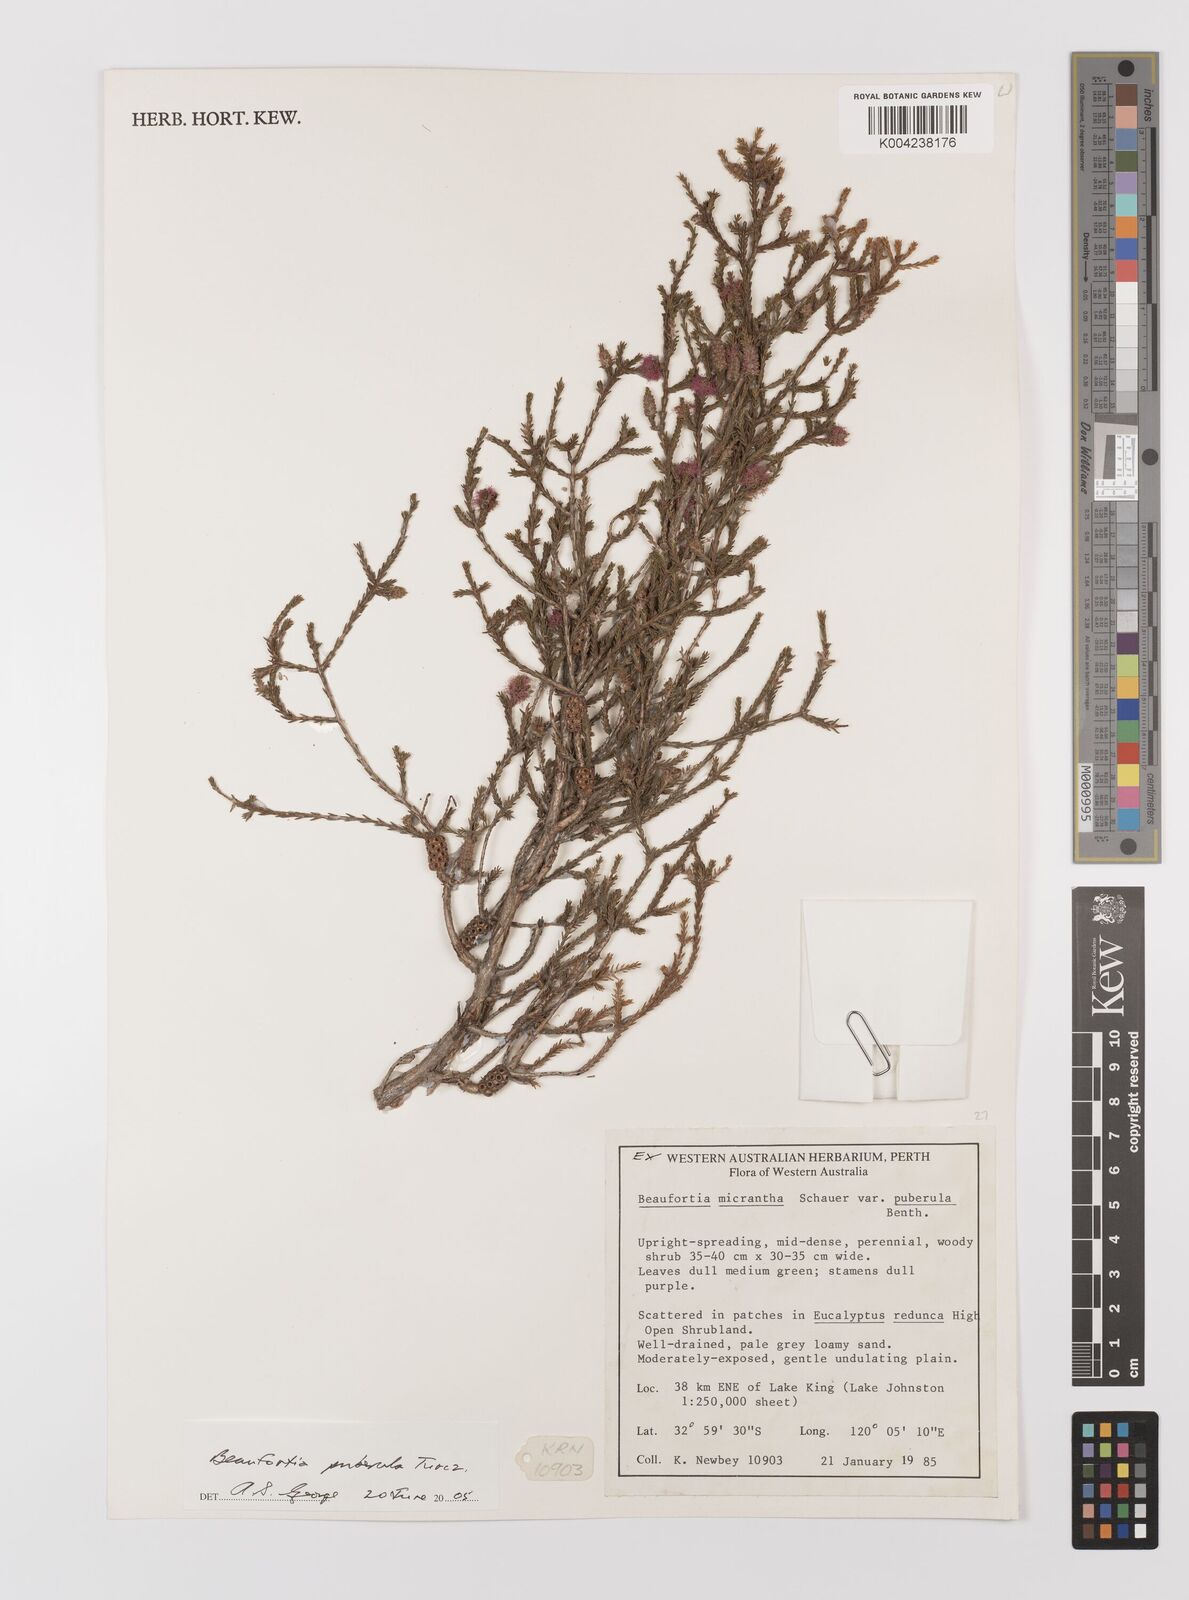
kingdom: Plantae
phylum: Tracheophyta
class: Magnoliopsida
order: Myrtales
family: Myrtaceae
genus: Melaleuca
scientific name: Melaleuca micrantha
